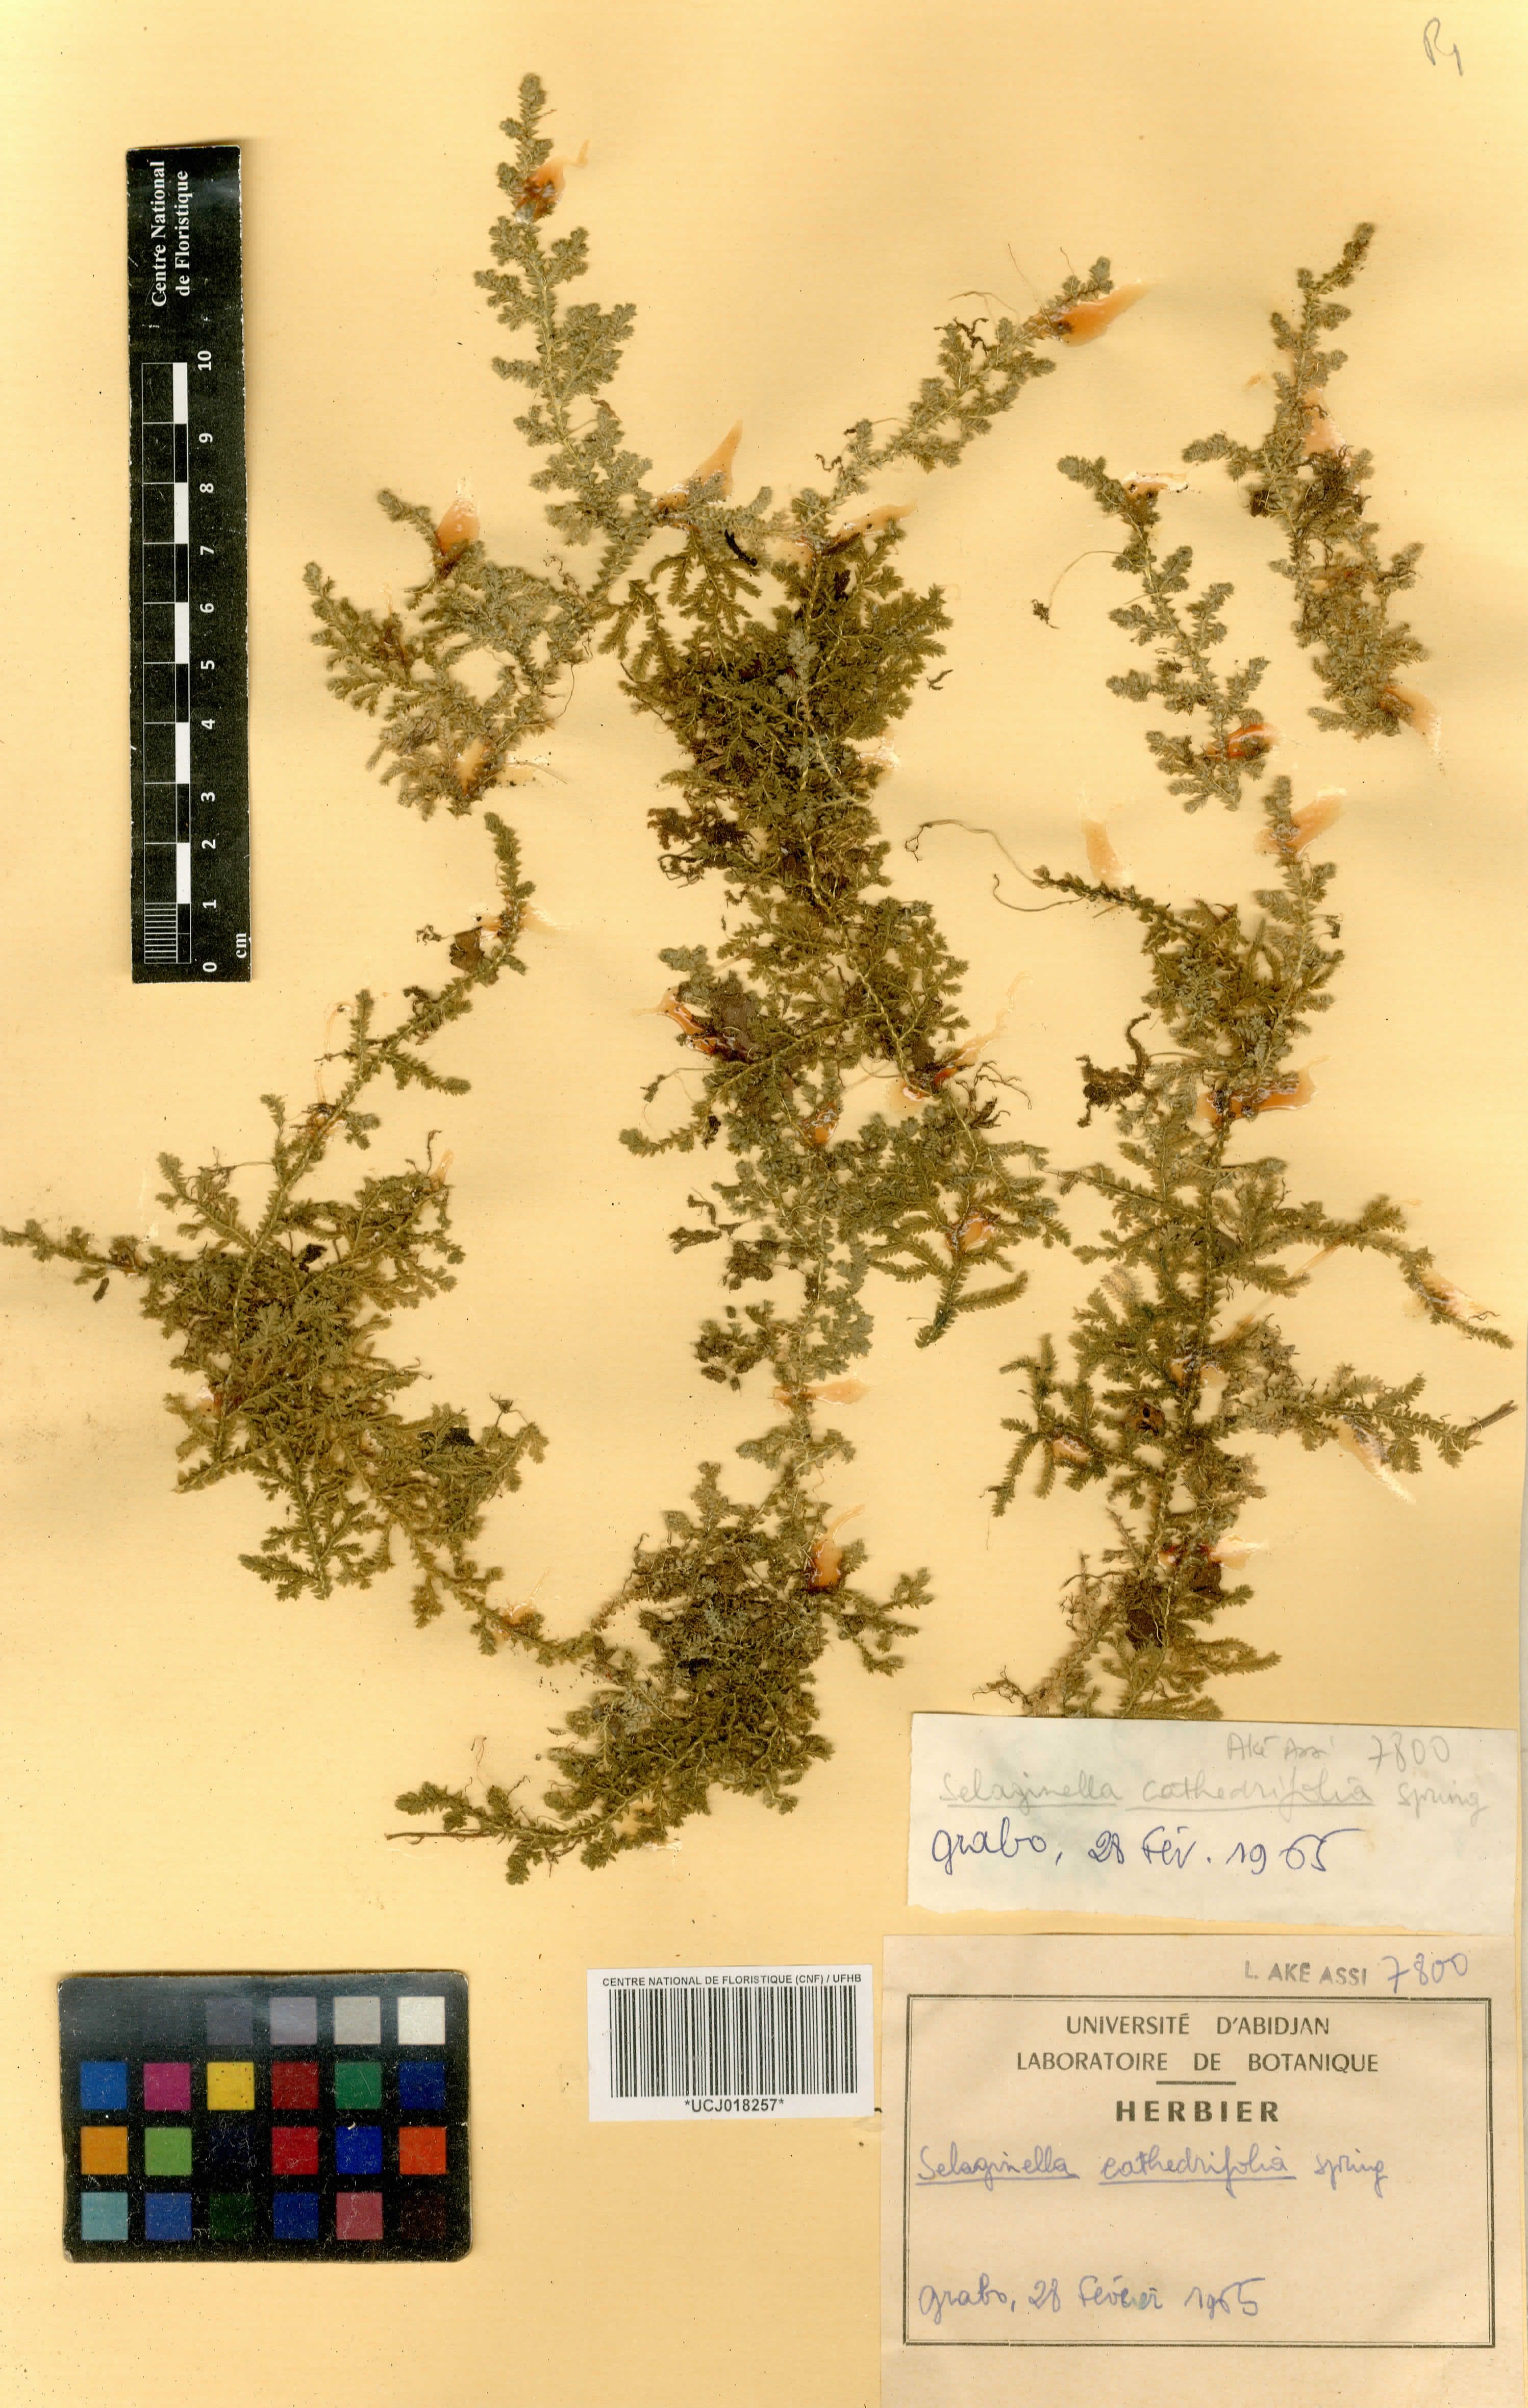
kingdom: Plantae
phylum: Tracheophyta
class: Lycopodiopsida
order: Selaginellales
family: Selaginellaceae
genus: Selaginella
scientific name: Selaginella cathedrifolia
